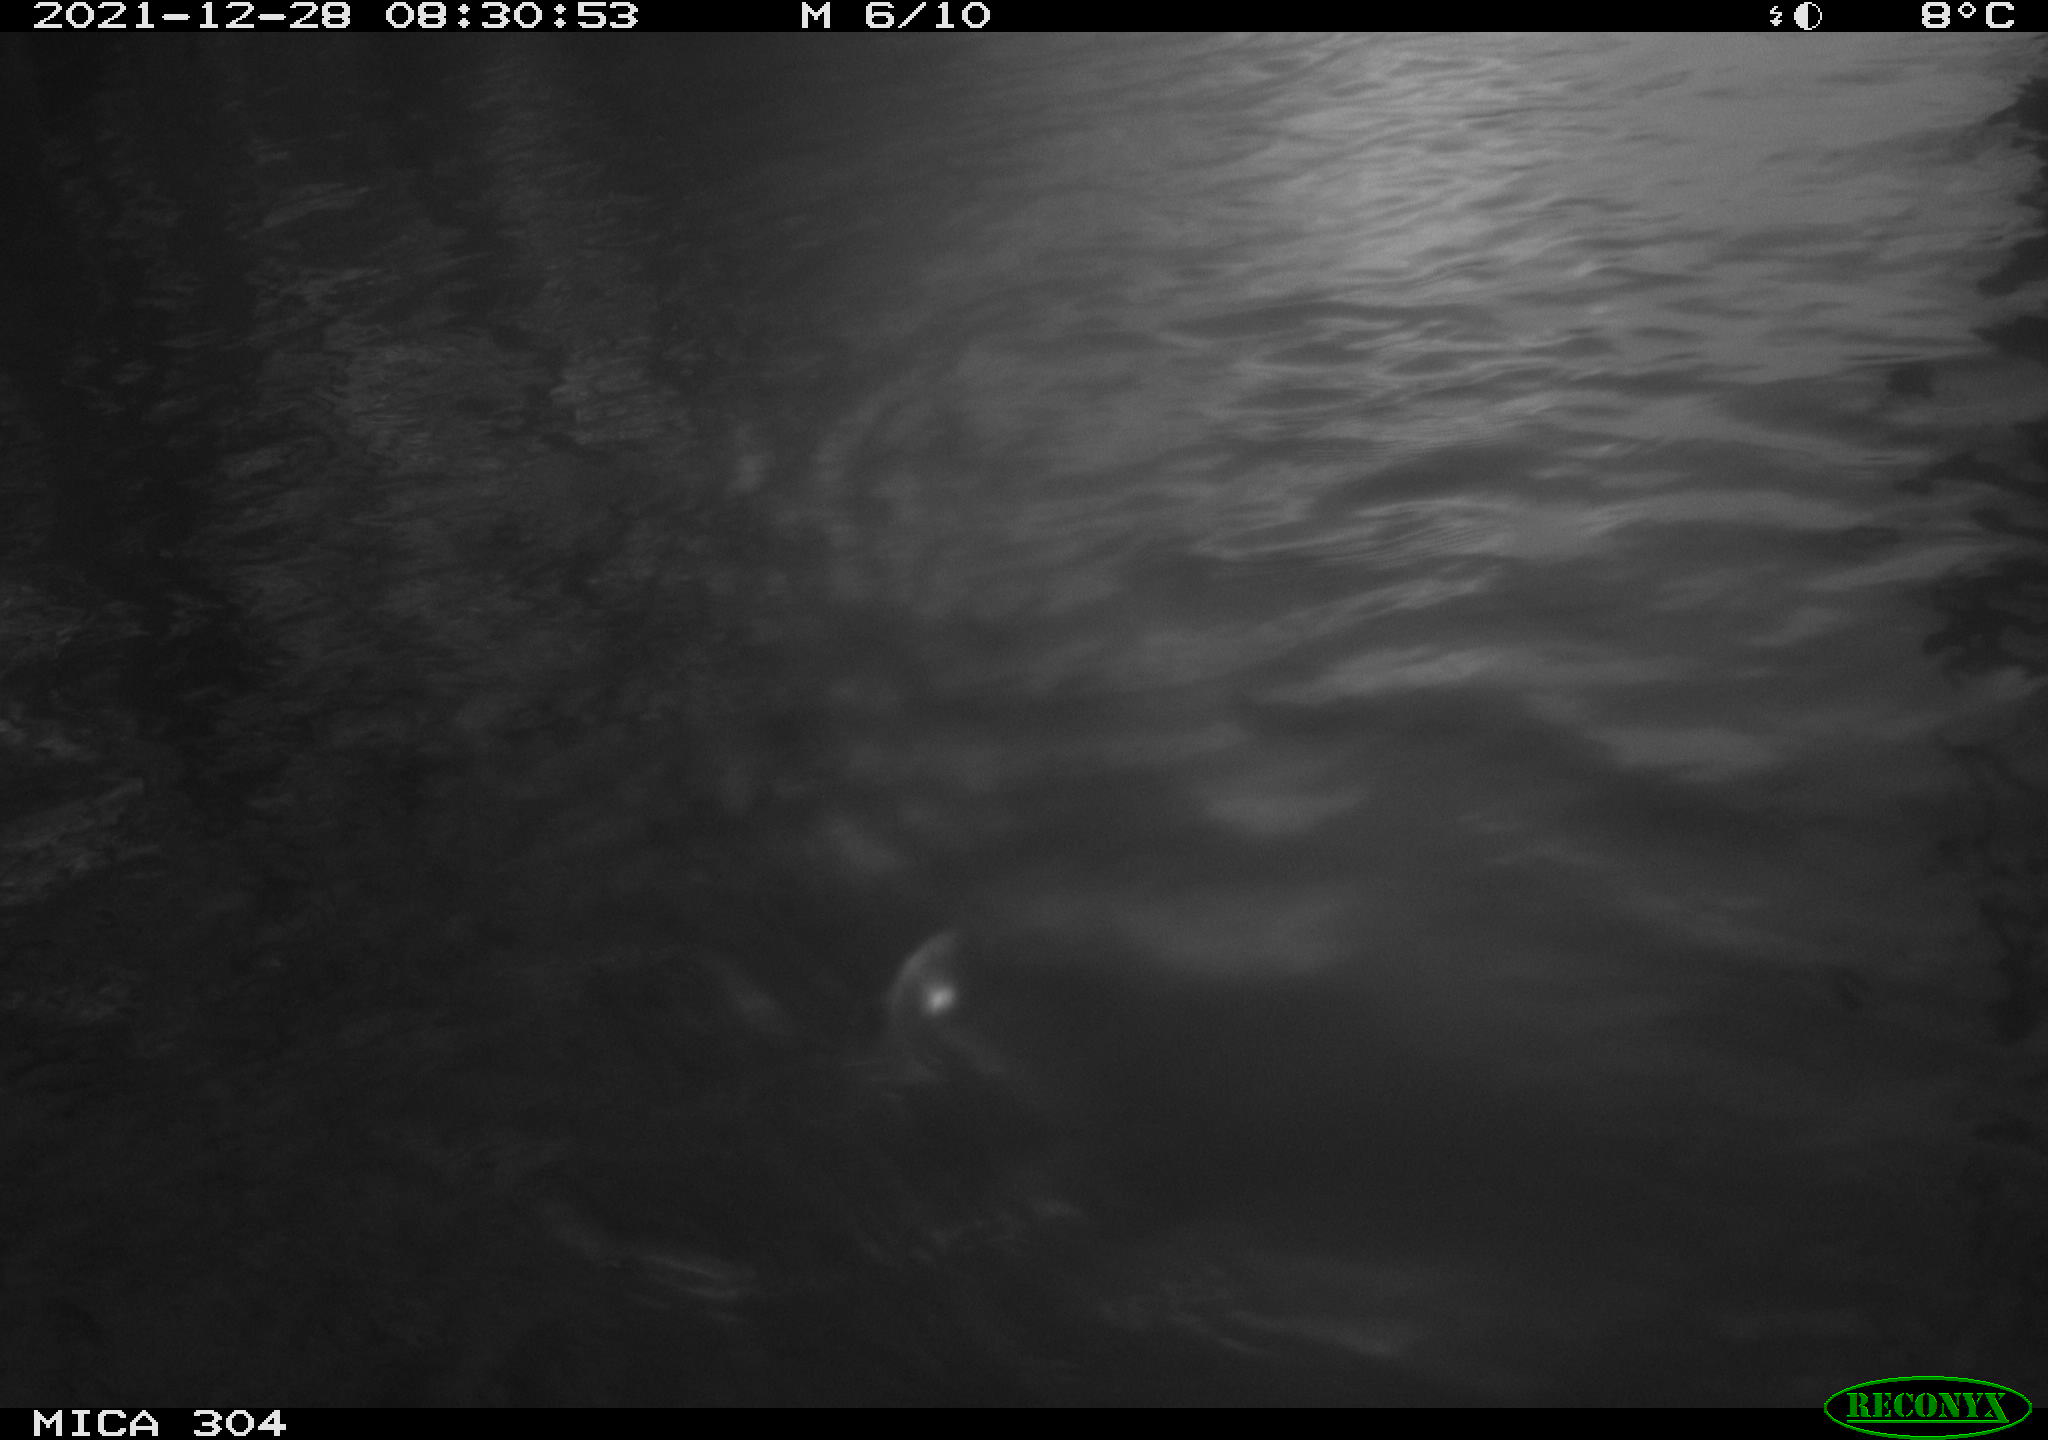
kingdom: Animalia
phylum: Chordata
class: Aves
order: Gruiformes
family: Rallidae
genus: Fulica
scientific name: Fulica atra
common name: Eurasian coot
